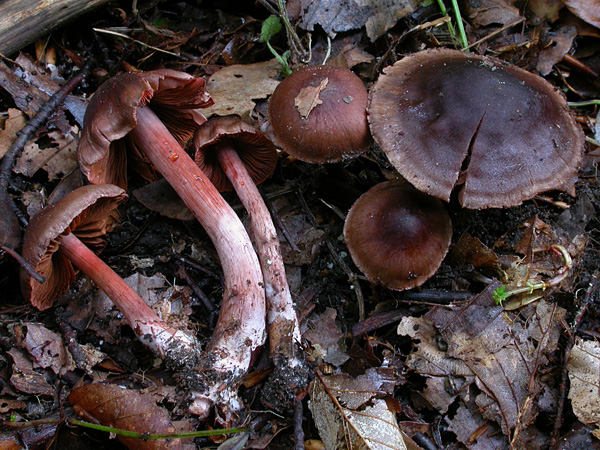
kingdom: Fungi
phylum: Basidiomycota
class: Agaricomycetes
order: Agaricales
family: Cortinariaceae
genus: Cortinarius
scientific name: Cortinarius danicus
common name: dansk slørhat
